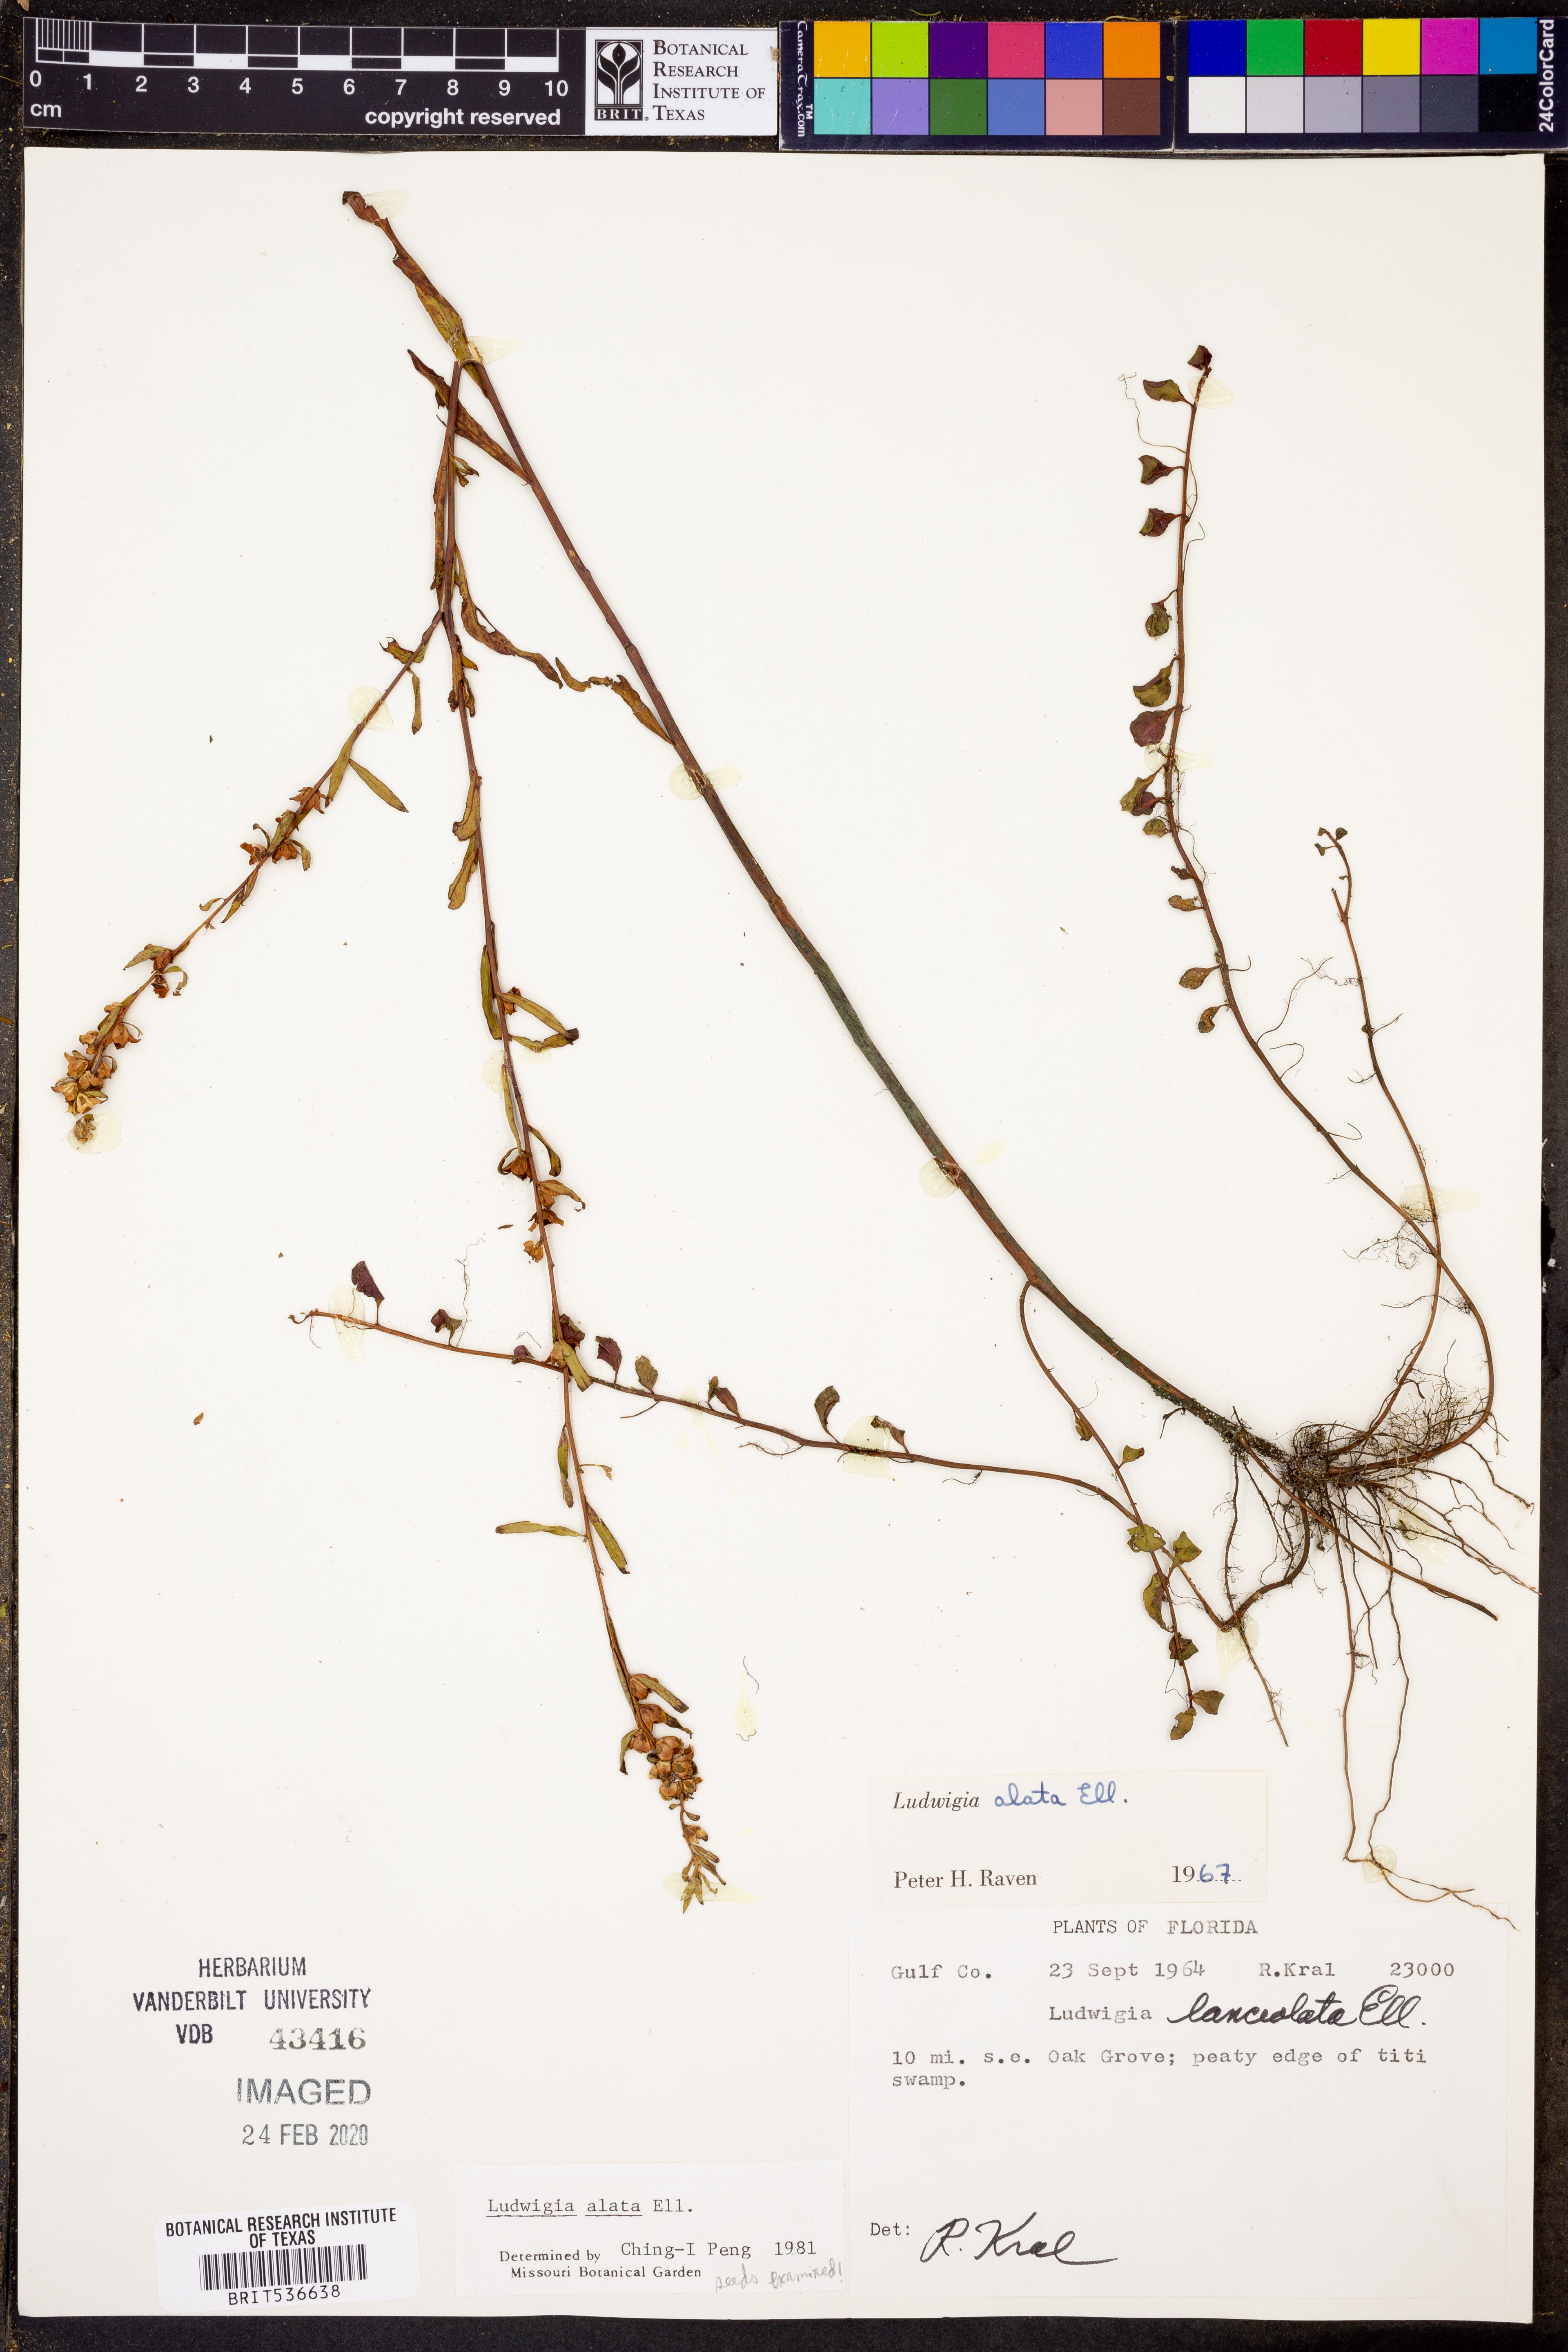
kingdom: Plantae
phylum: Tracheophyta
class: Magnoliopsida
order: Myrtales
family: Onagraceae
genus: Ludwigia
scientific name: Ludwigia alata
